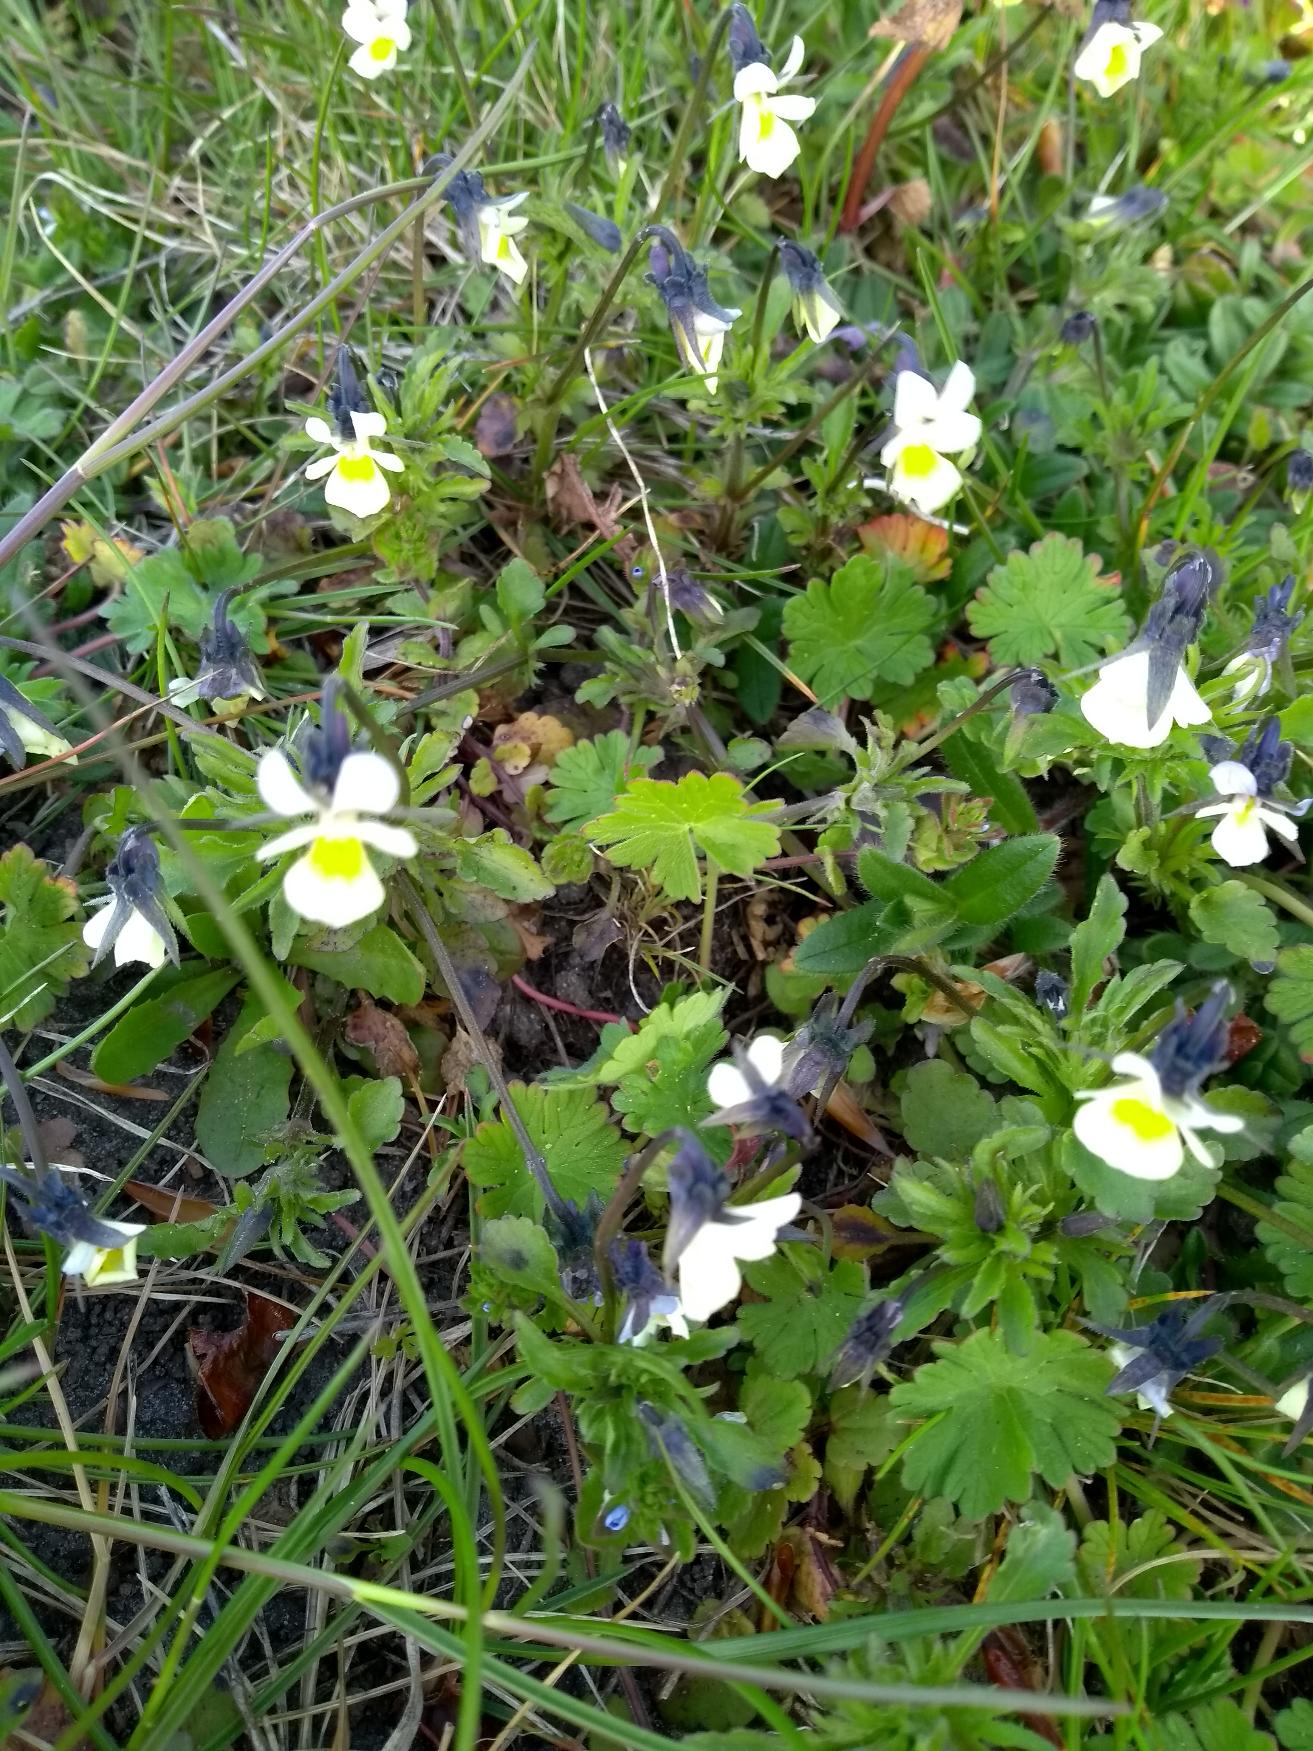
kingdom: Plantae
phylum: Tracheophyta
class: Magnoliopsida
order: Malpighiales
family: Violaceae
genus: Viola
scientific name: Viola arvensis
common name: Ager-stedmoderblomst
